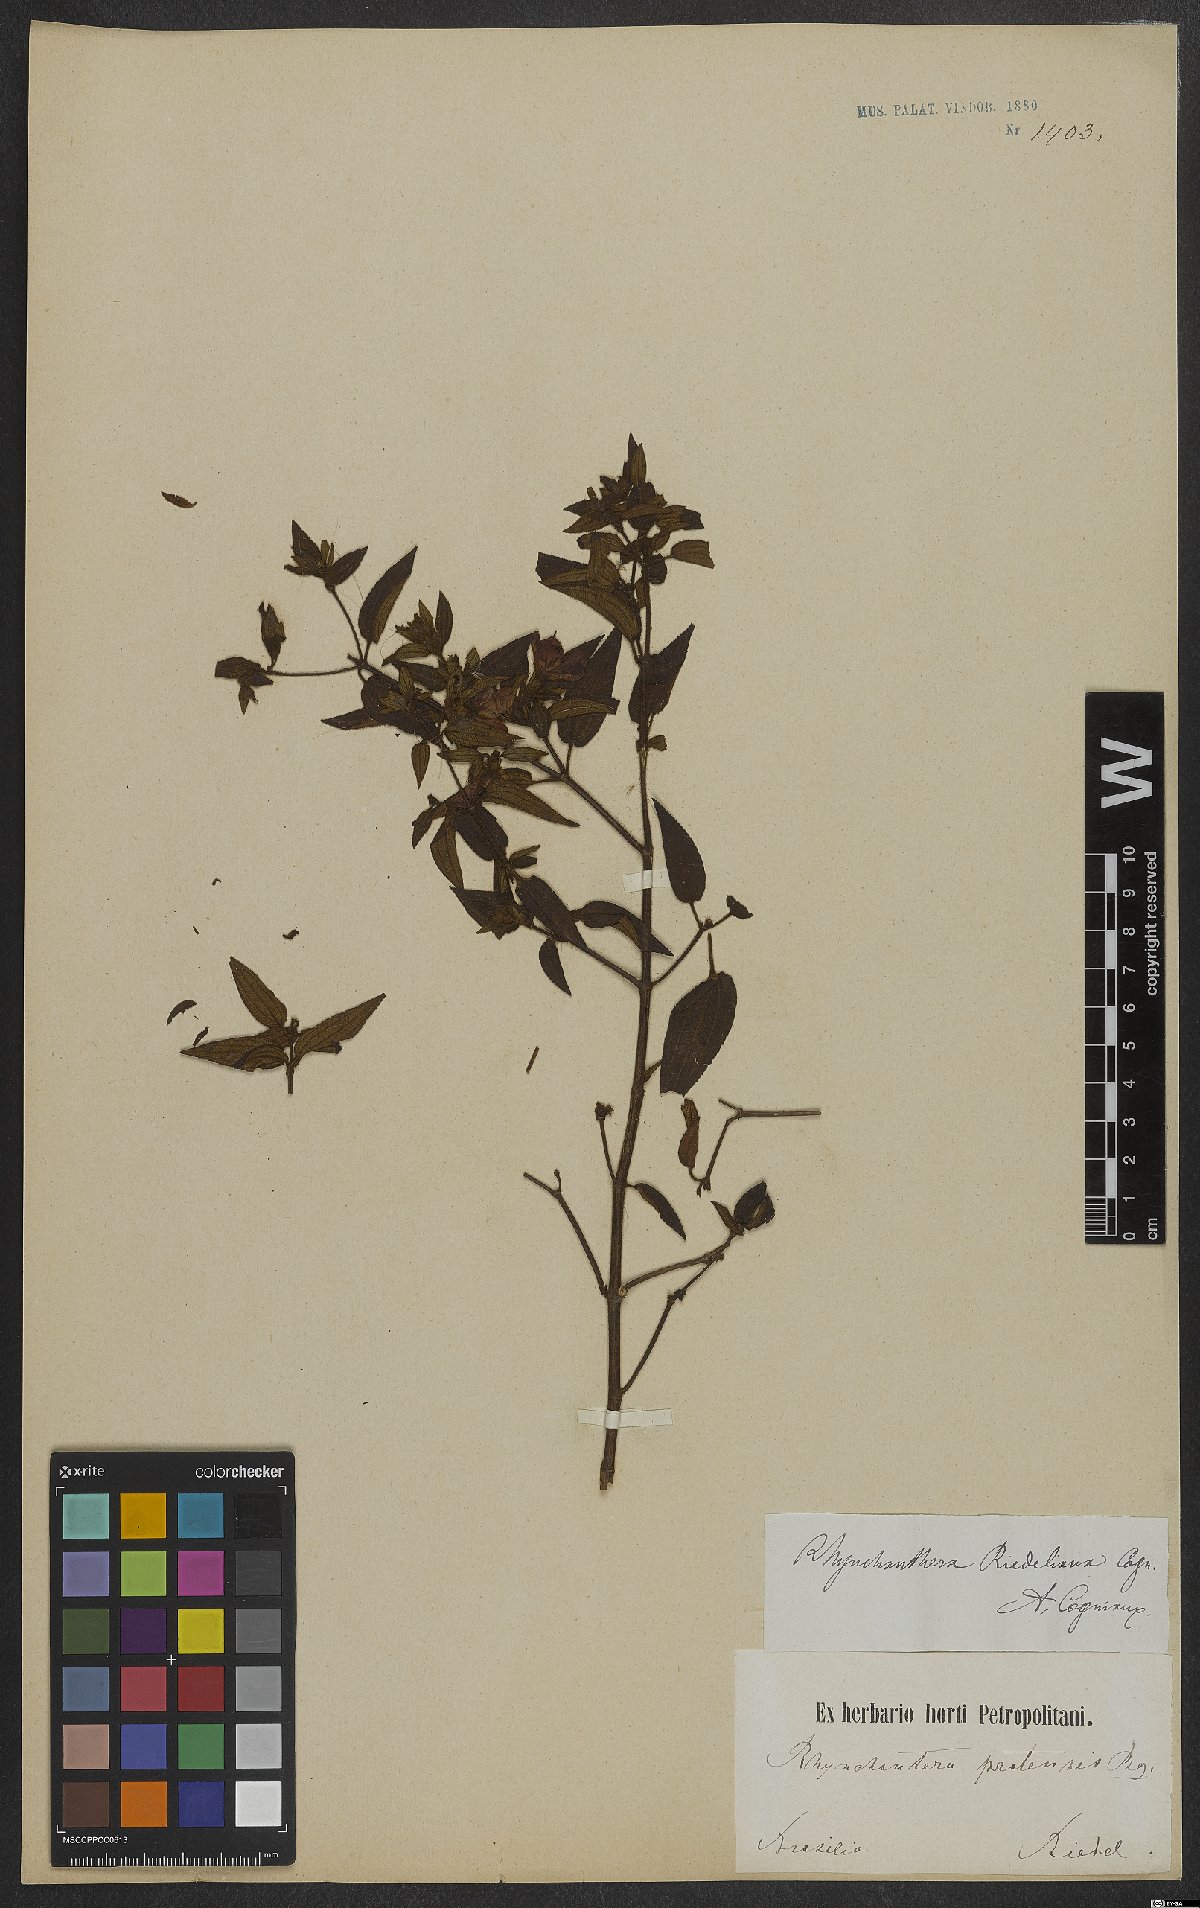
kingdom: Plantae
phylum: Tracheophyta
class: Magnoliopsida
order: Myrtales
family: Melastomataceae
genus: Rhynchanthera
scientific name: Rhynchanthera dichotoma
